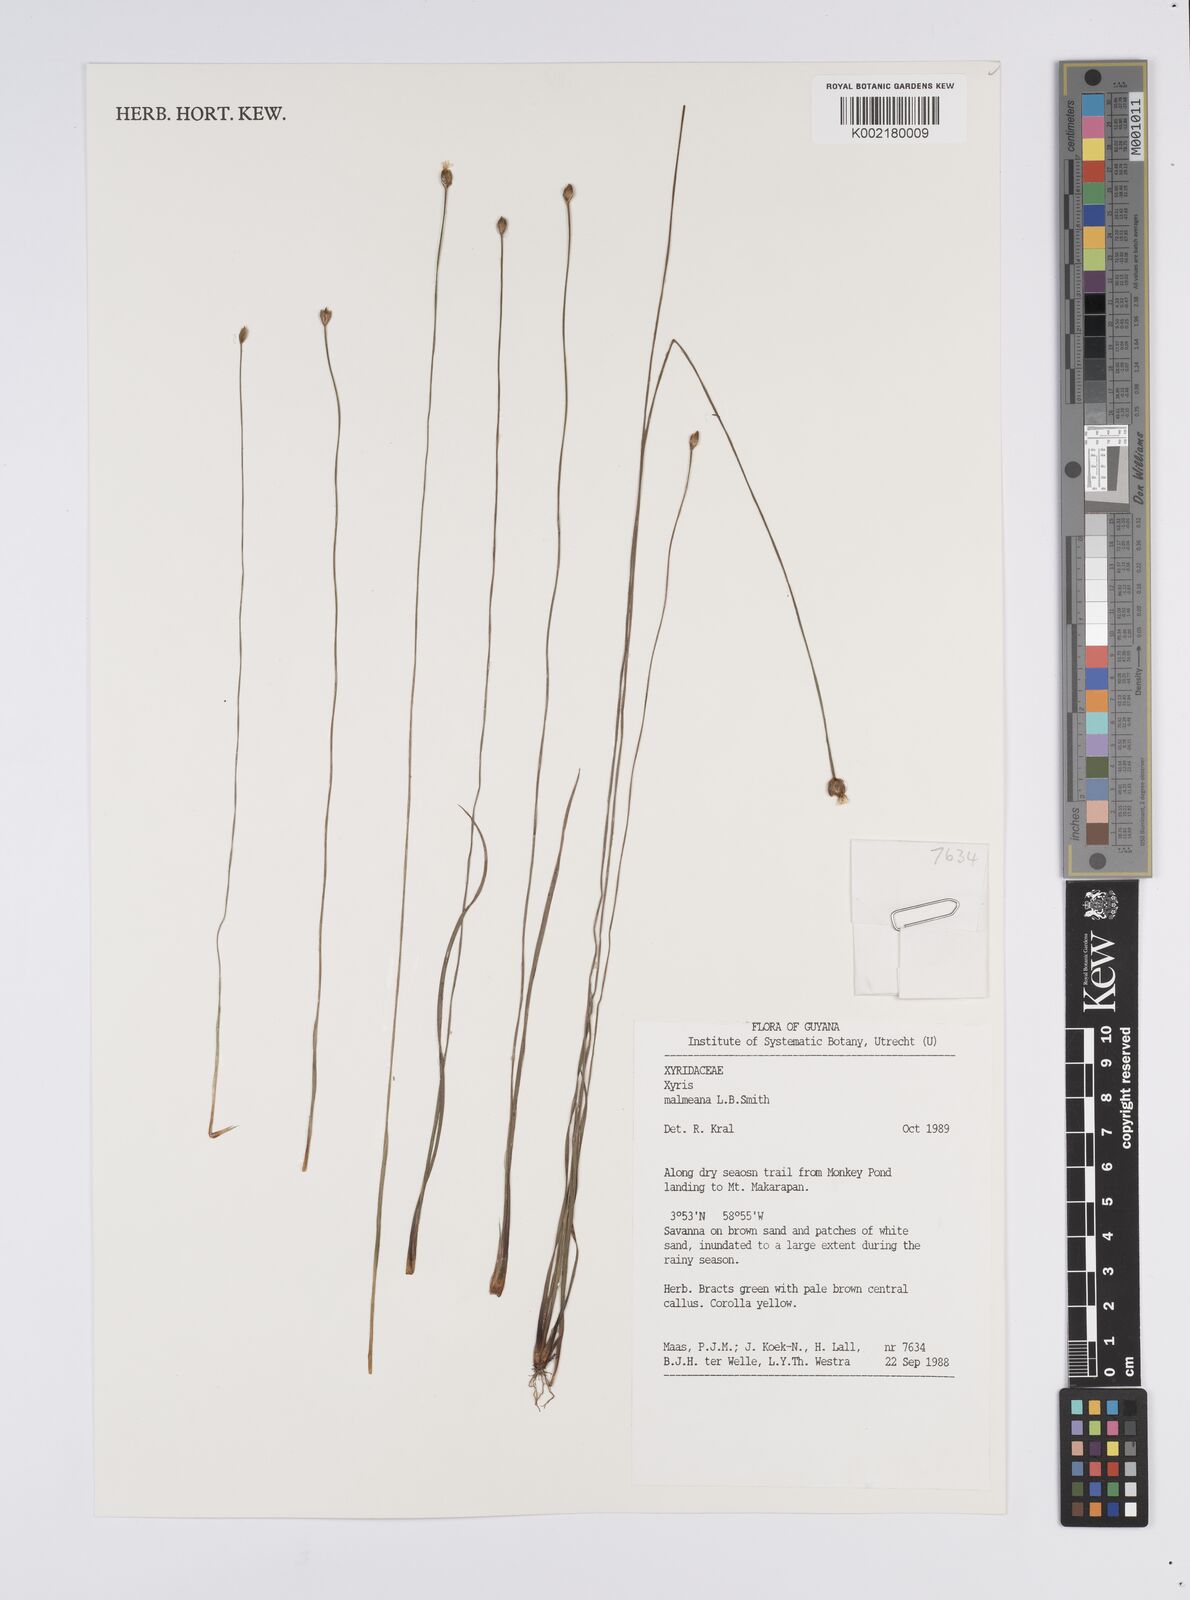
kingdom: Plantae
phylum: Tracheophyta
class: Liliopsida
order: Poales
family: Xyridaceae
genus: Xyris
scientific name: Xyris malmeana
